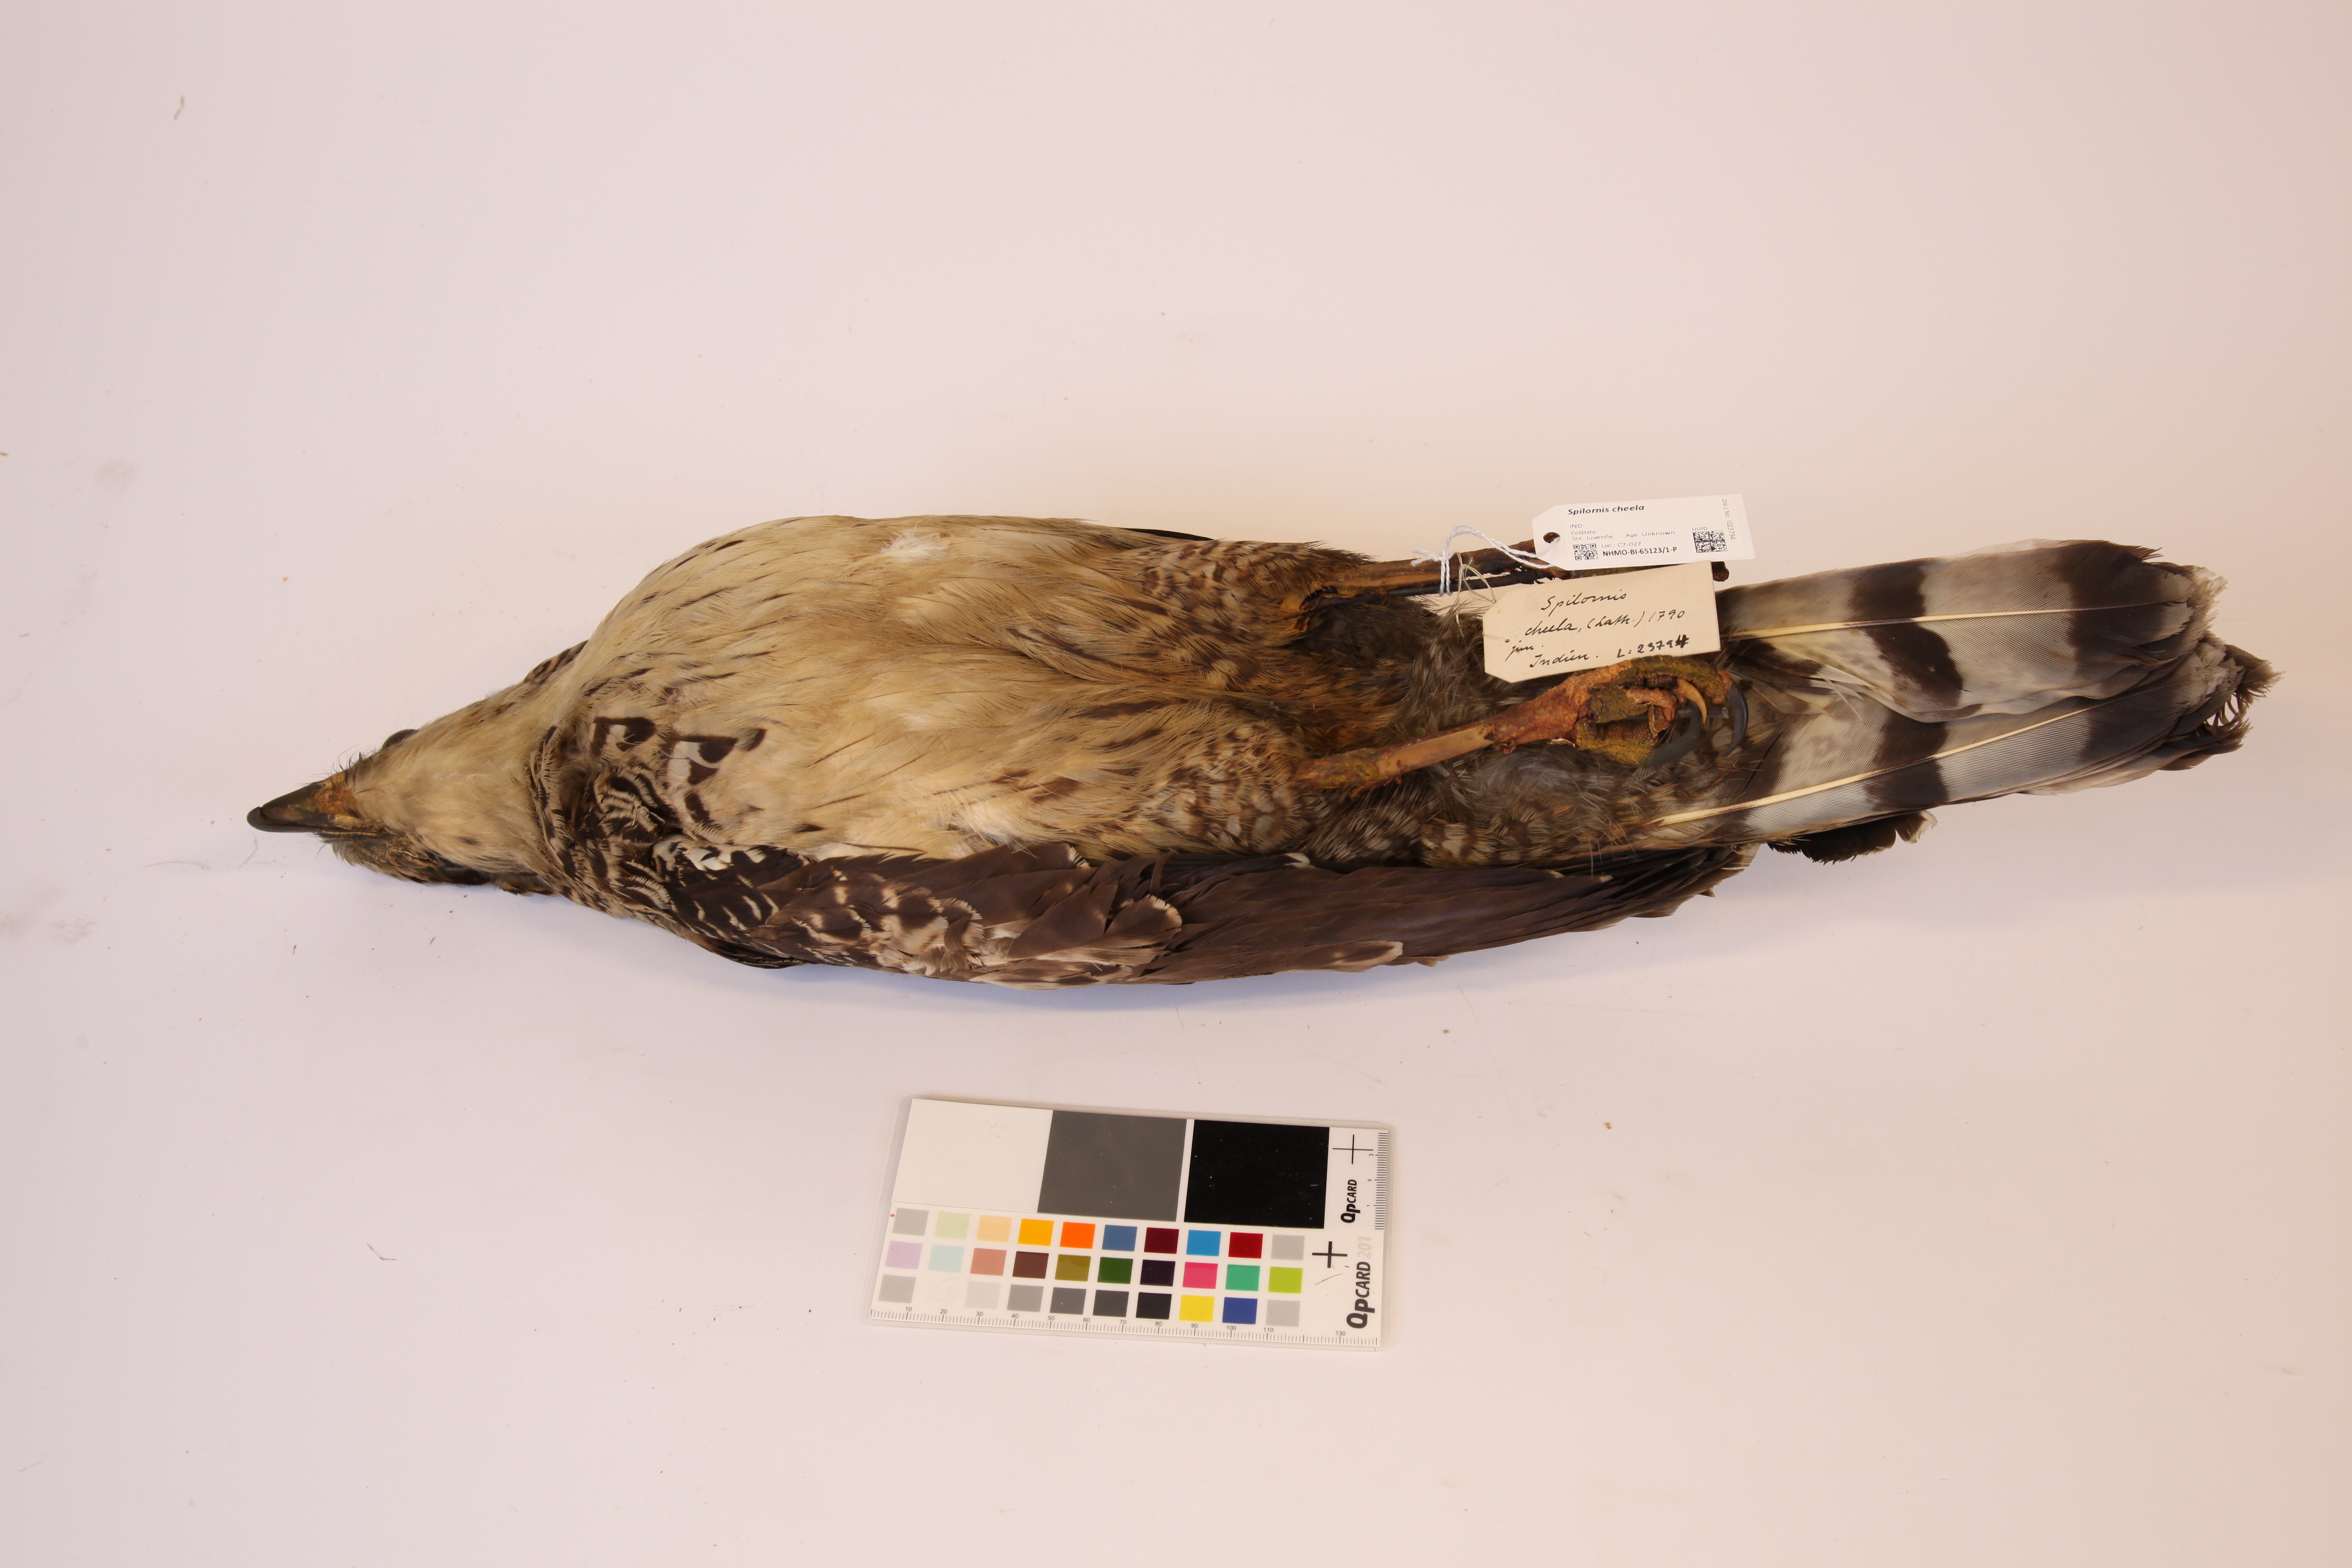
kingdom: Animalia
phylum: Chordata
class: Aves
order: Accipitriformes
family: Accipitridae
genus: Spilornis
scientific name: Spilornis cheela
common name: Crested serpent eagle
